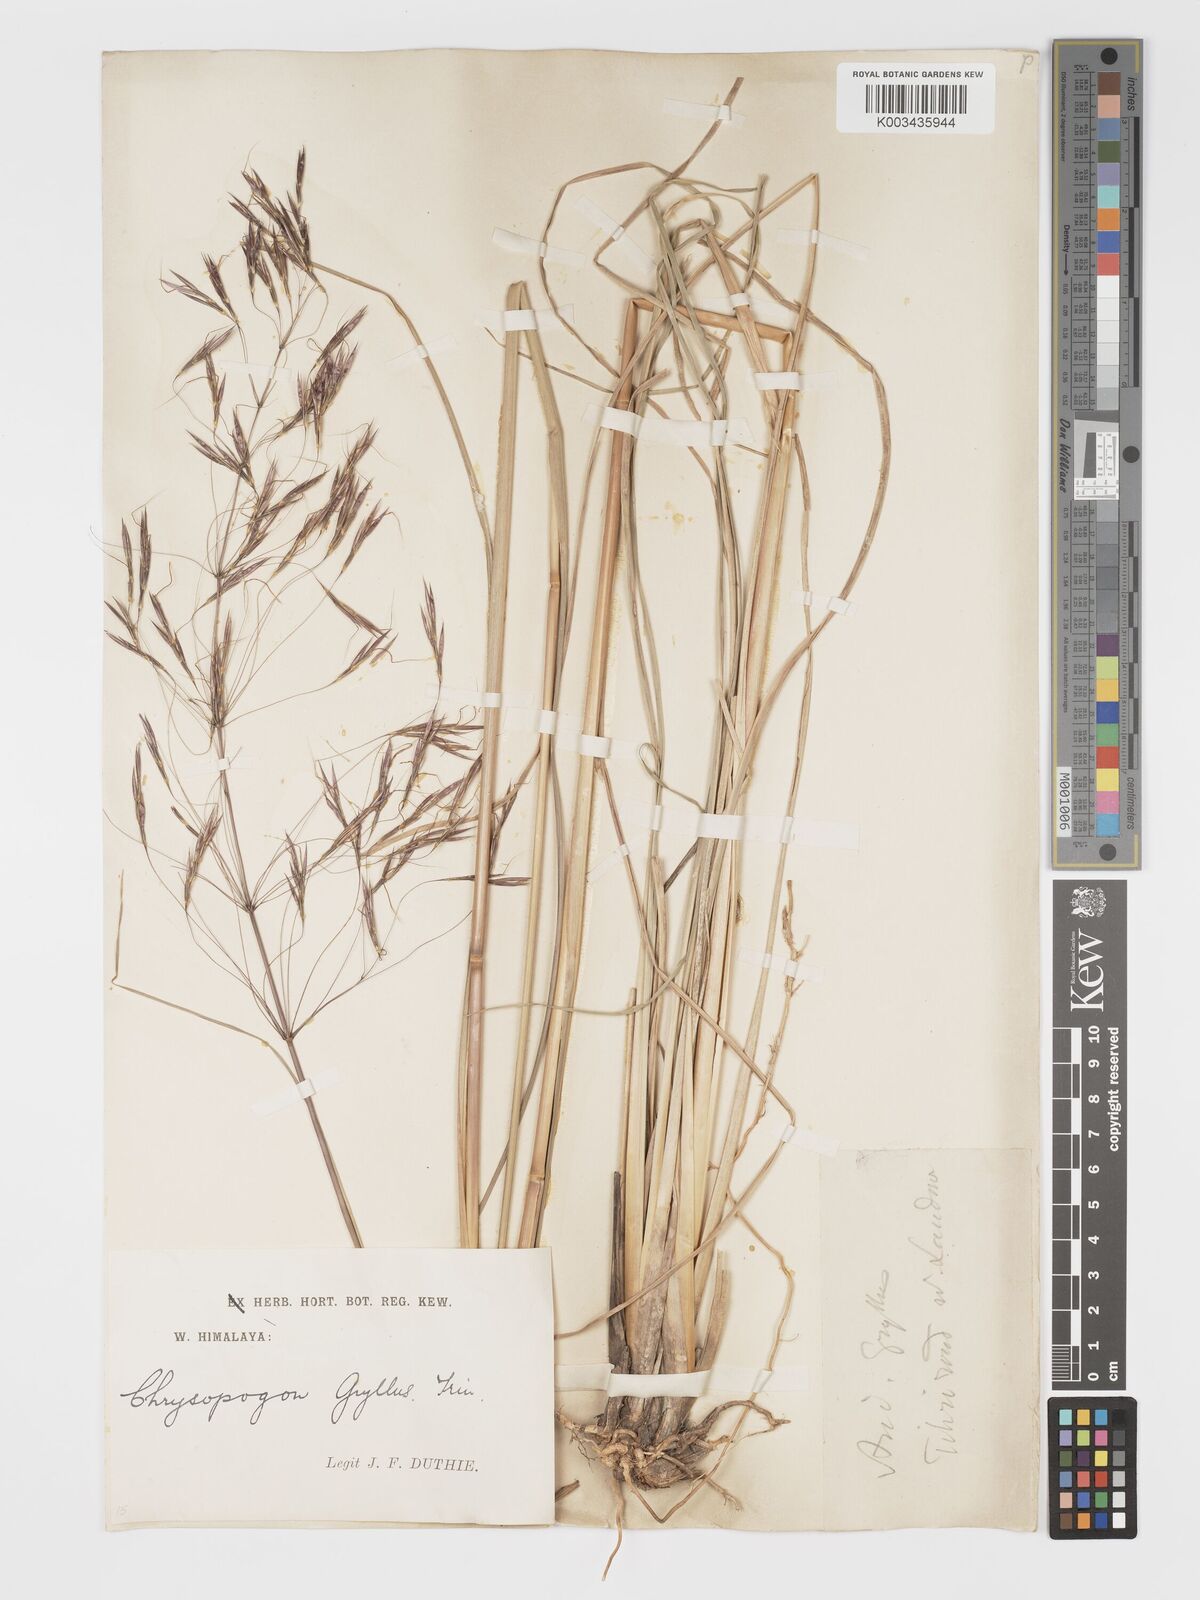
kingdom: Plantae
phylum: Tracheophyta
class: Liliopsida
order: Poales
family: Poaceae
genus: Chrysopogon
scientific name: Chrysopogon gryllus
